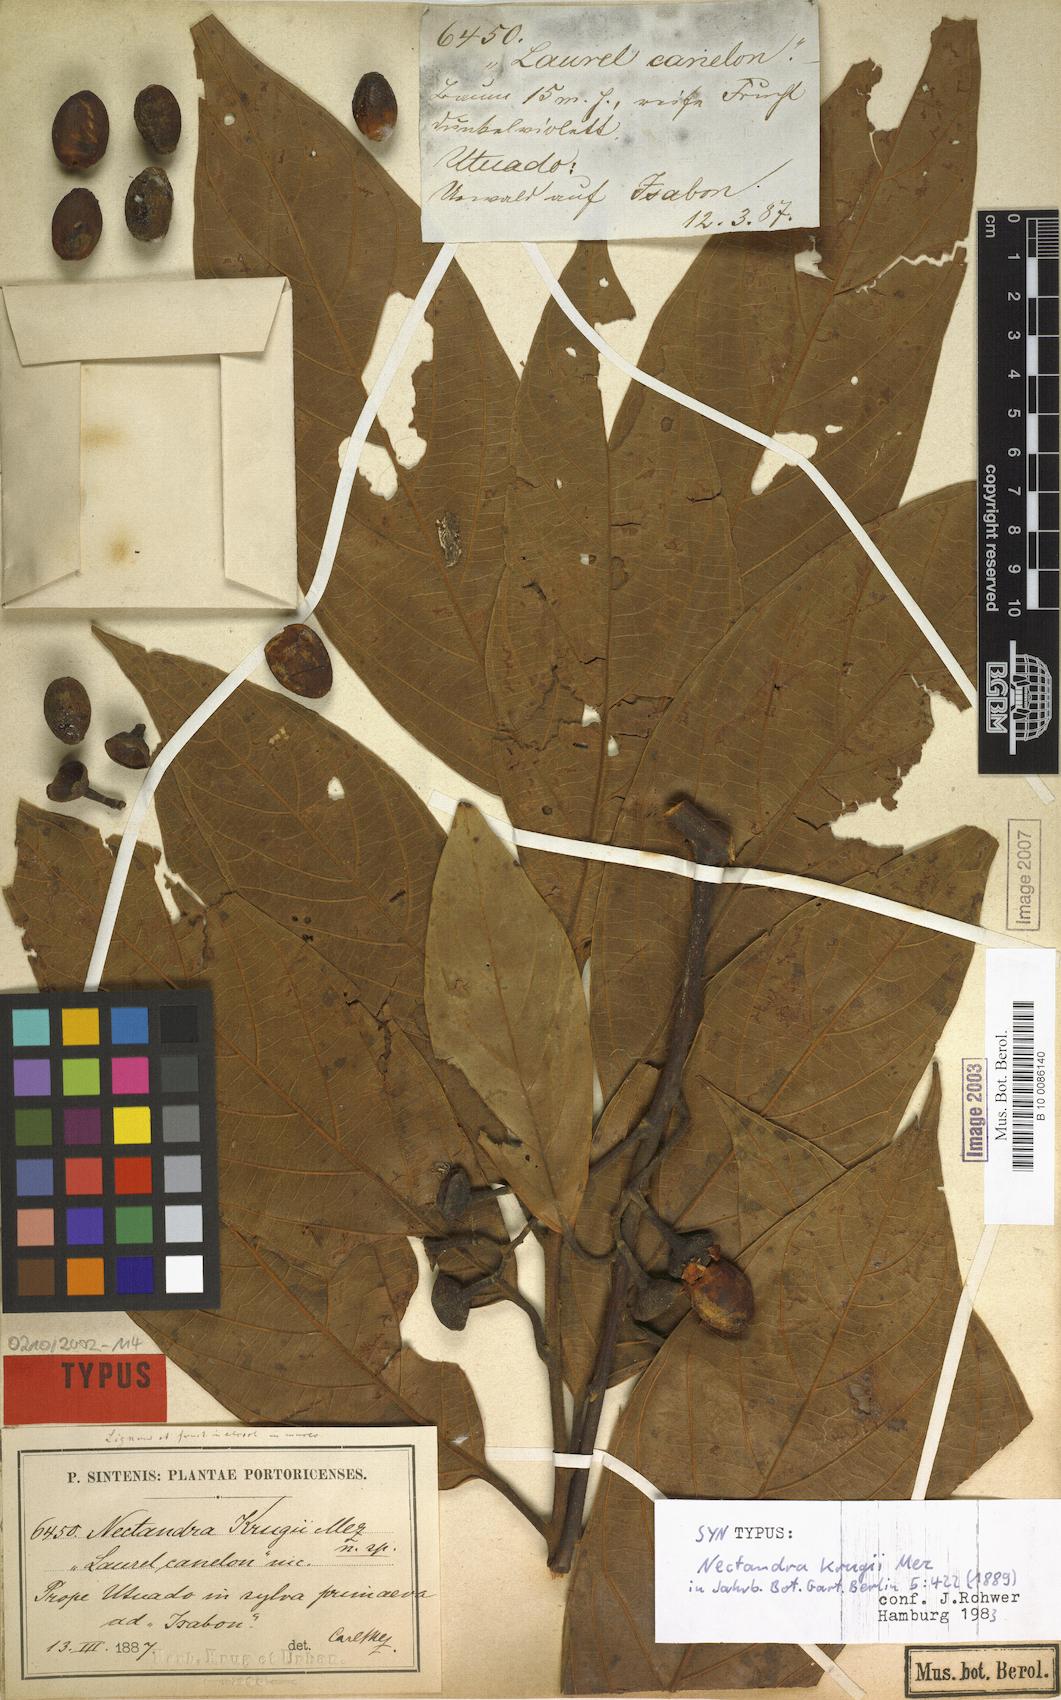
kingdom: Plantae
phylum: Tracheophyta
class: Magnoliopsida
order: Laurales
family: Lauraceae
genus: Nectandra
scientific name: Nectandra krugii
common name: Black sweetwood
